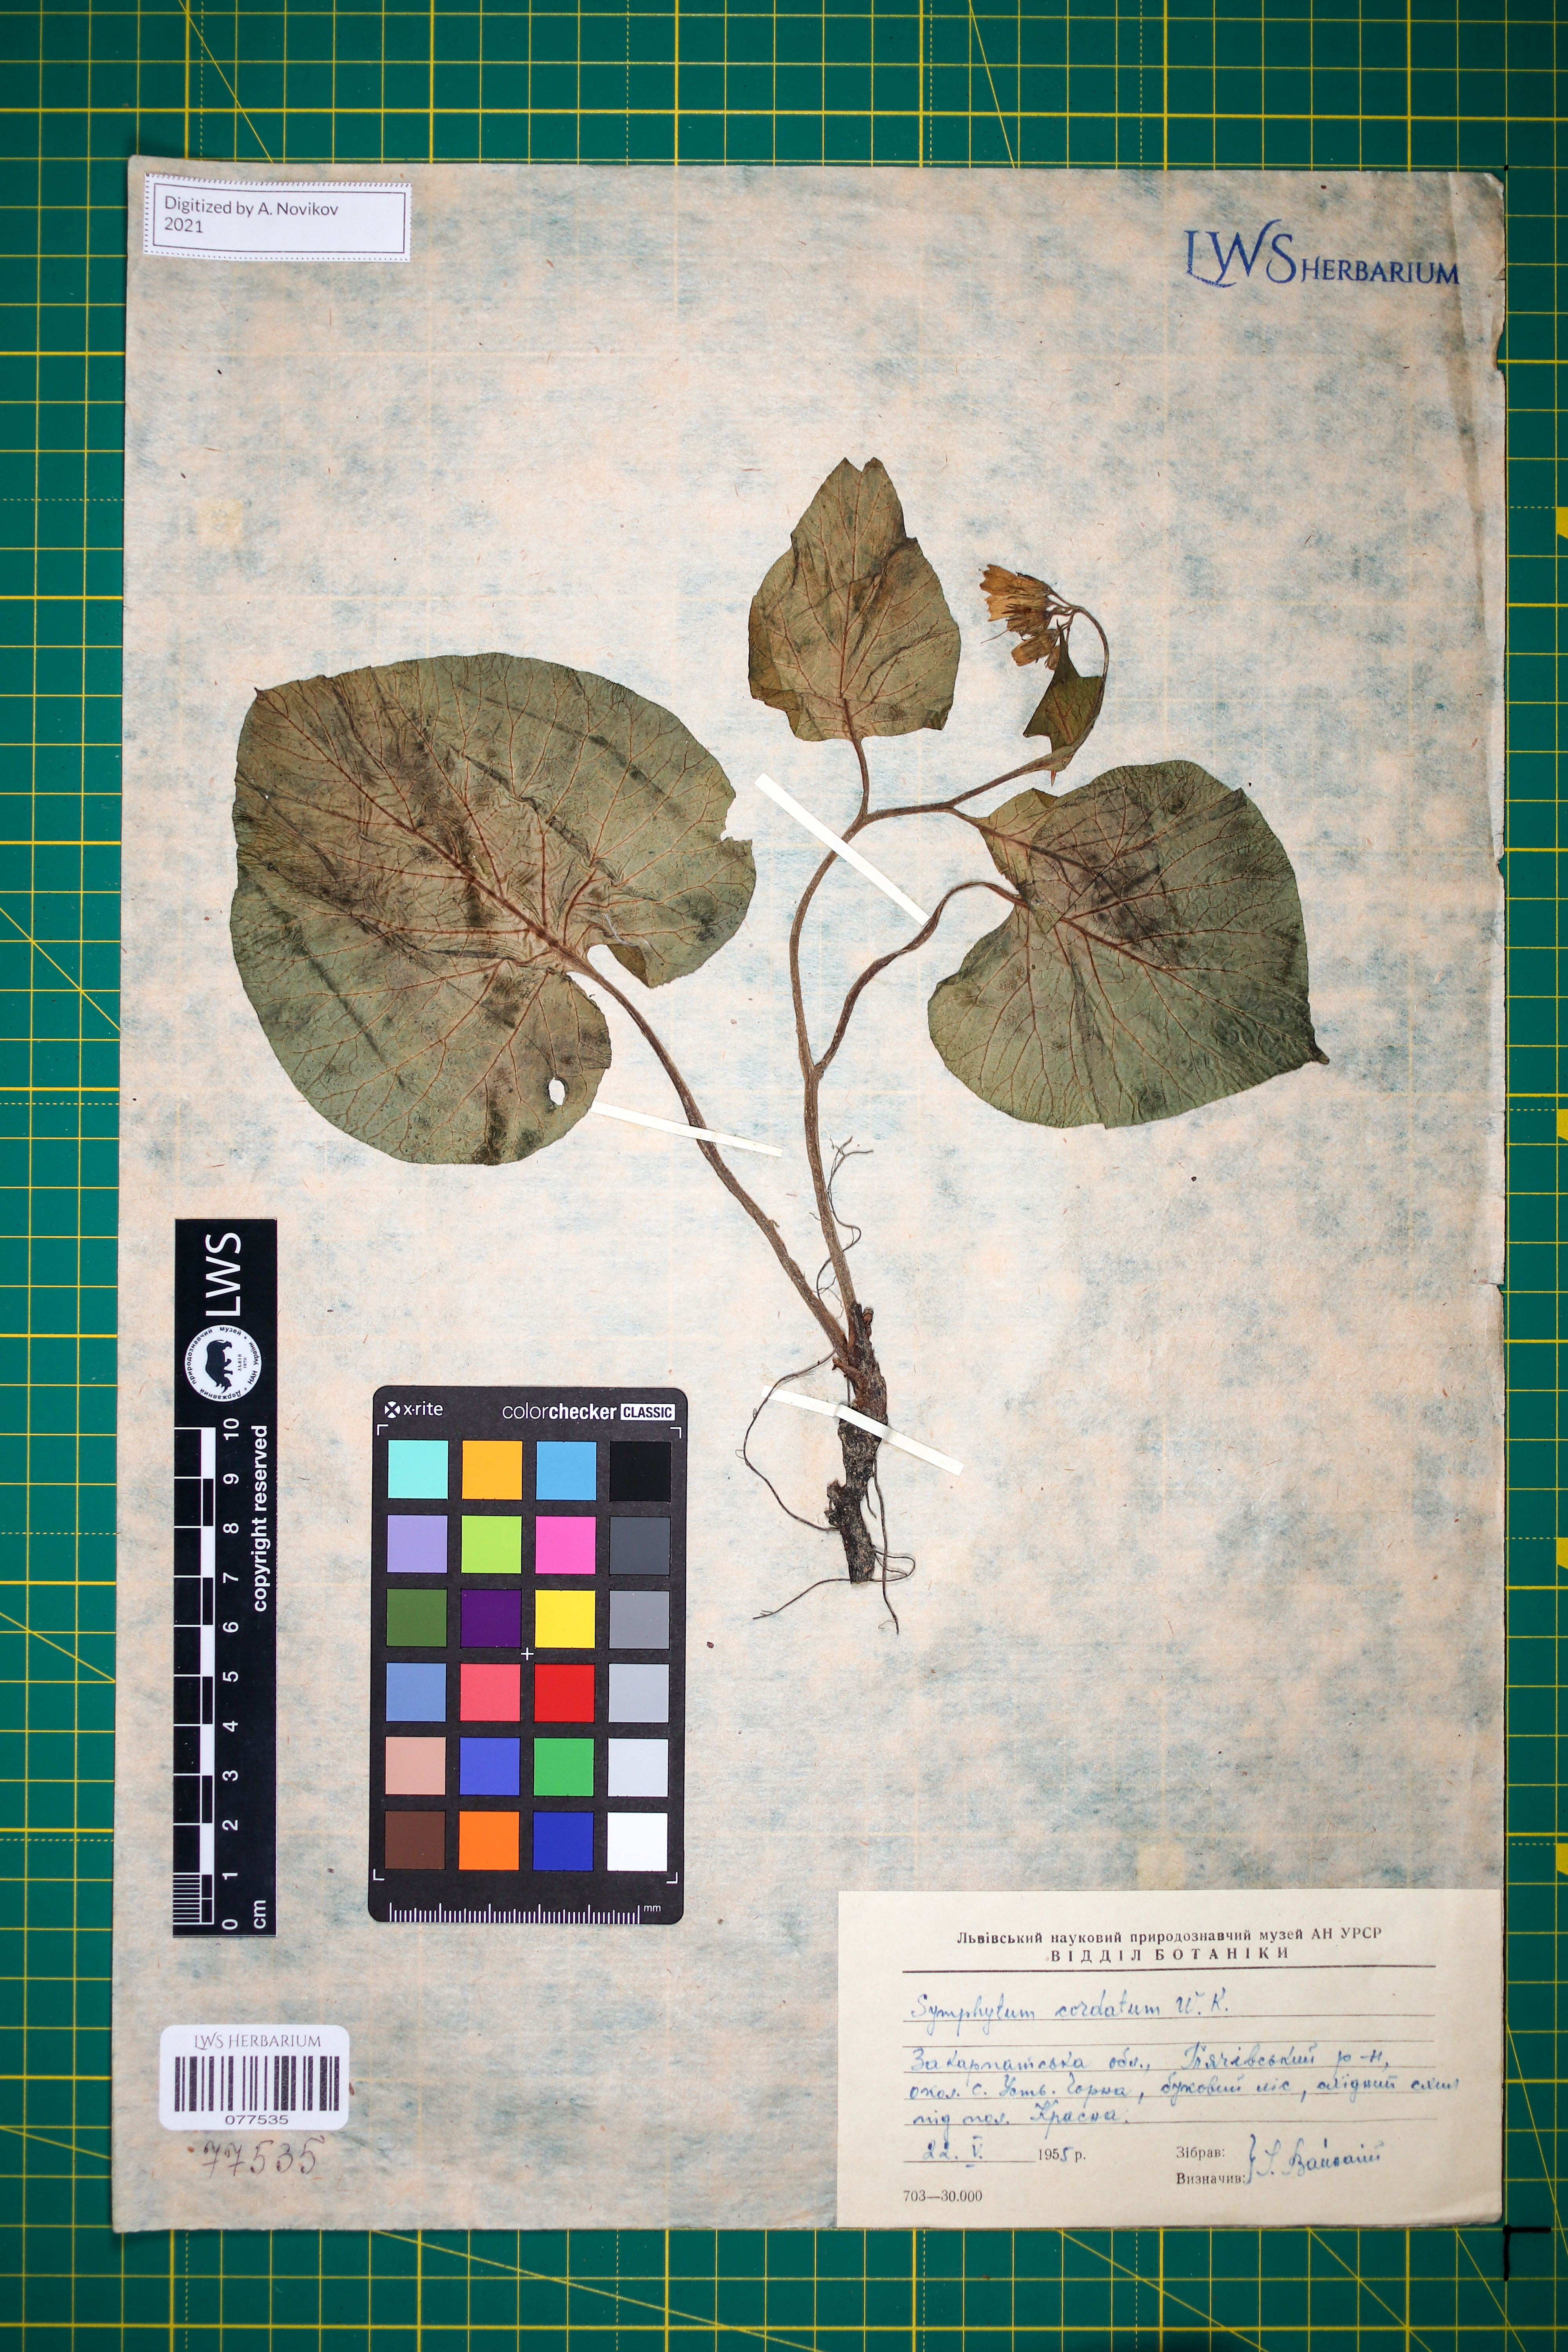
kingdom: Plantae
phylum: Tracheophyta
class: Magnoliopsida
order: Boraginales
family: Boraginaceae
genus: Symphytum
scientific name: Symphytum cordatum
